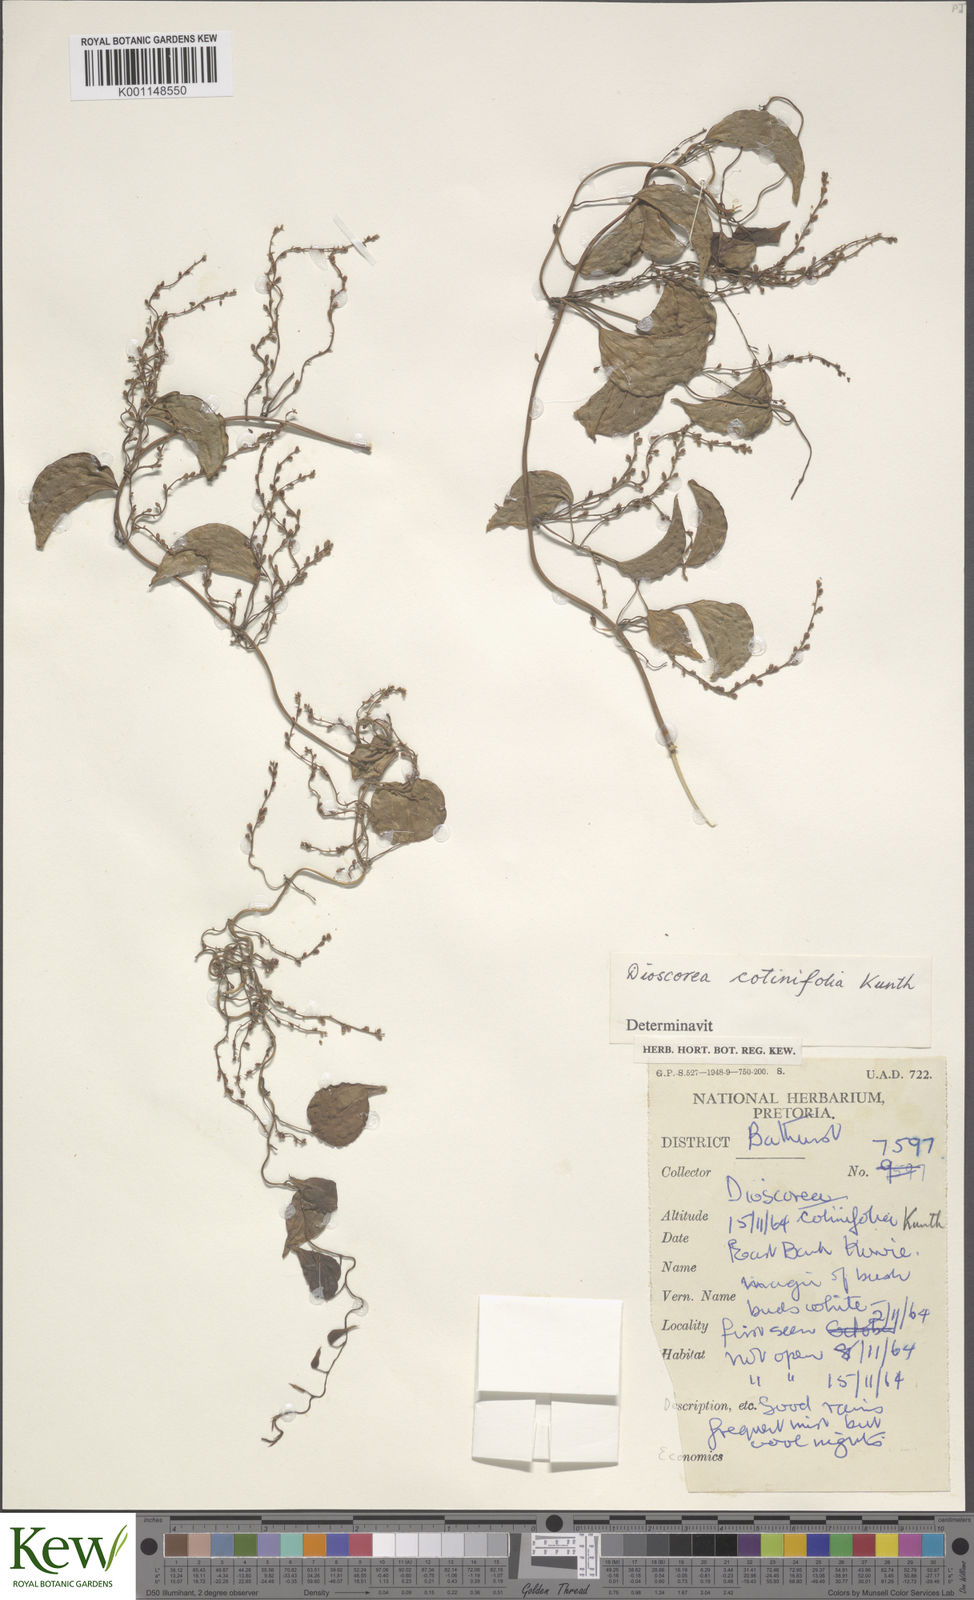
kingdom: Plantae
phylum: Tracheophyta
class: Liliopsida
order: Dioscoreales
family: Dioscoreaceae
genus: Dioscorea
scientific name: Dioscorea cotinifolia
